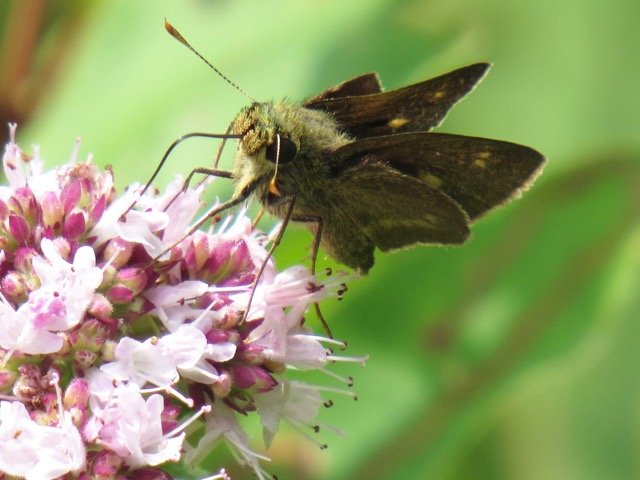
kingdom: Animalia
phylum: Arthropoda
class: Insecta
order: Lepidoptera
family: Hesperiidae
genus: Polites
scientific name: Polites egeremet
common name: Northern Broken-Dash
